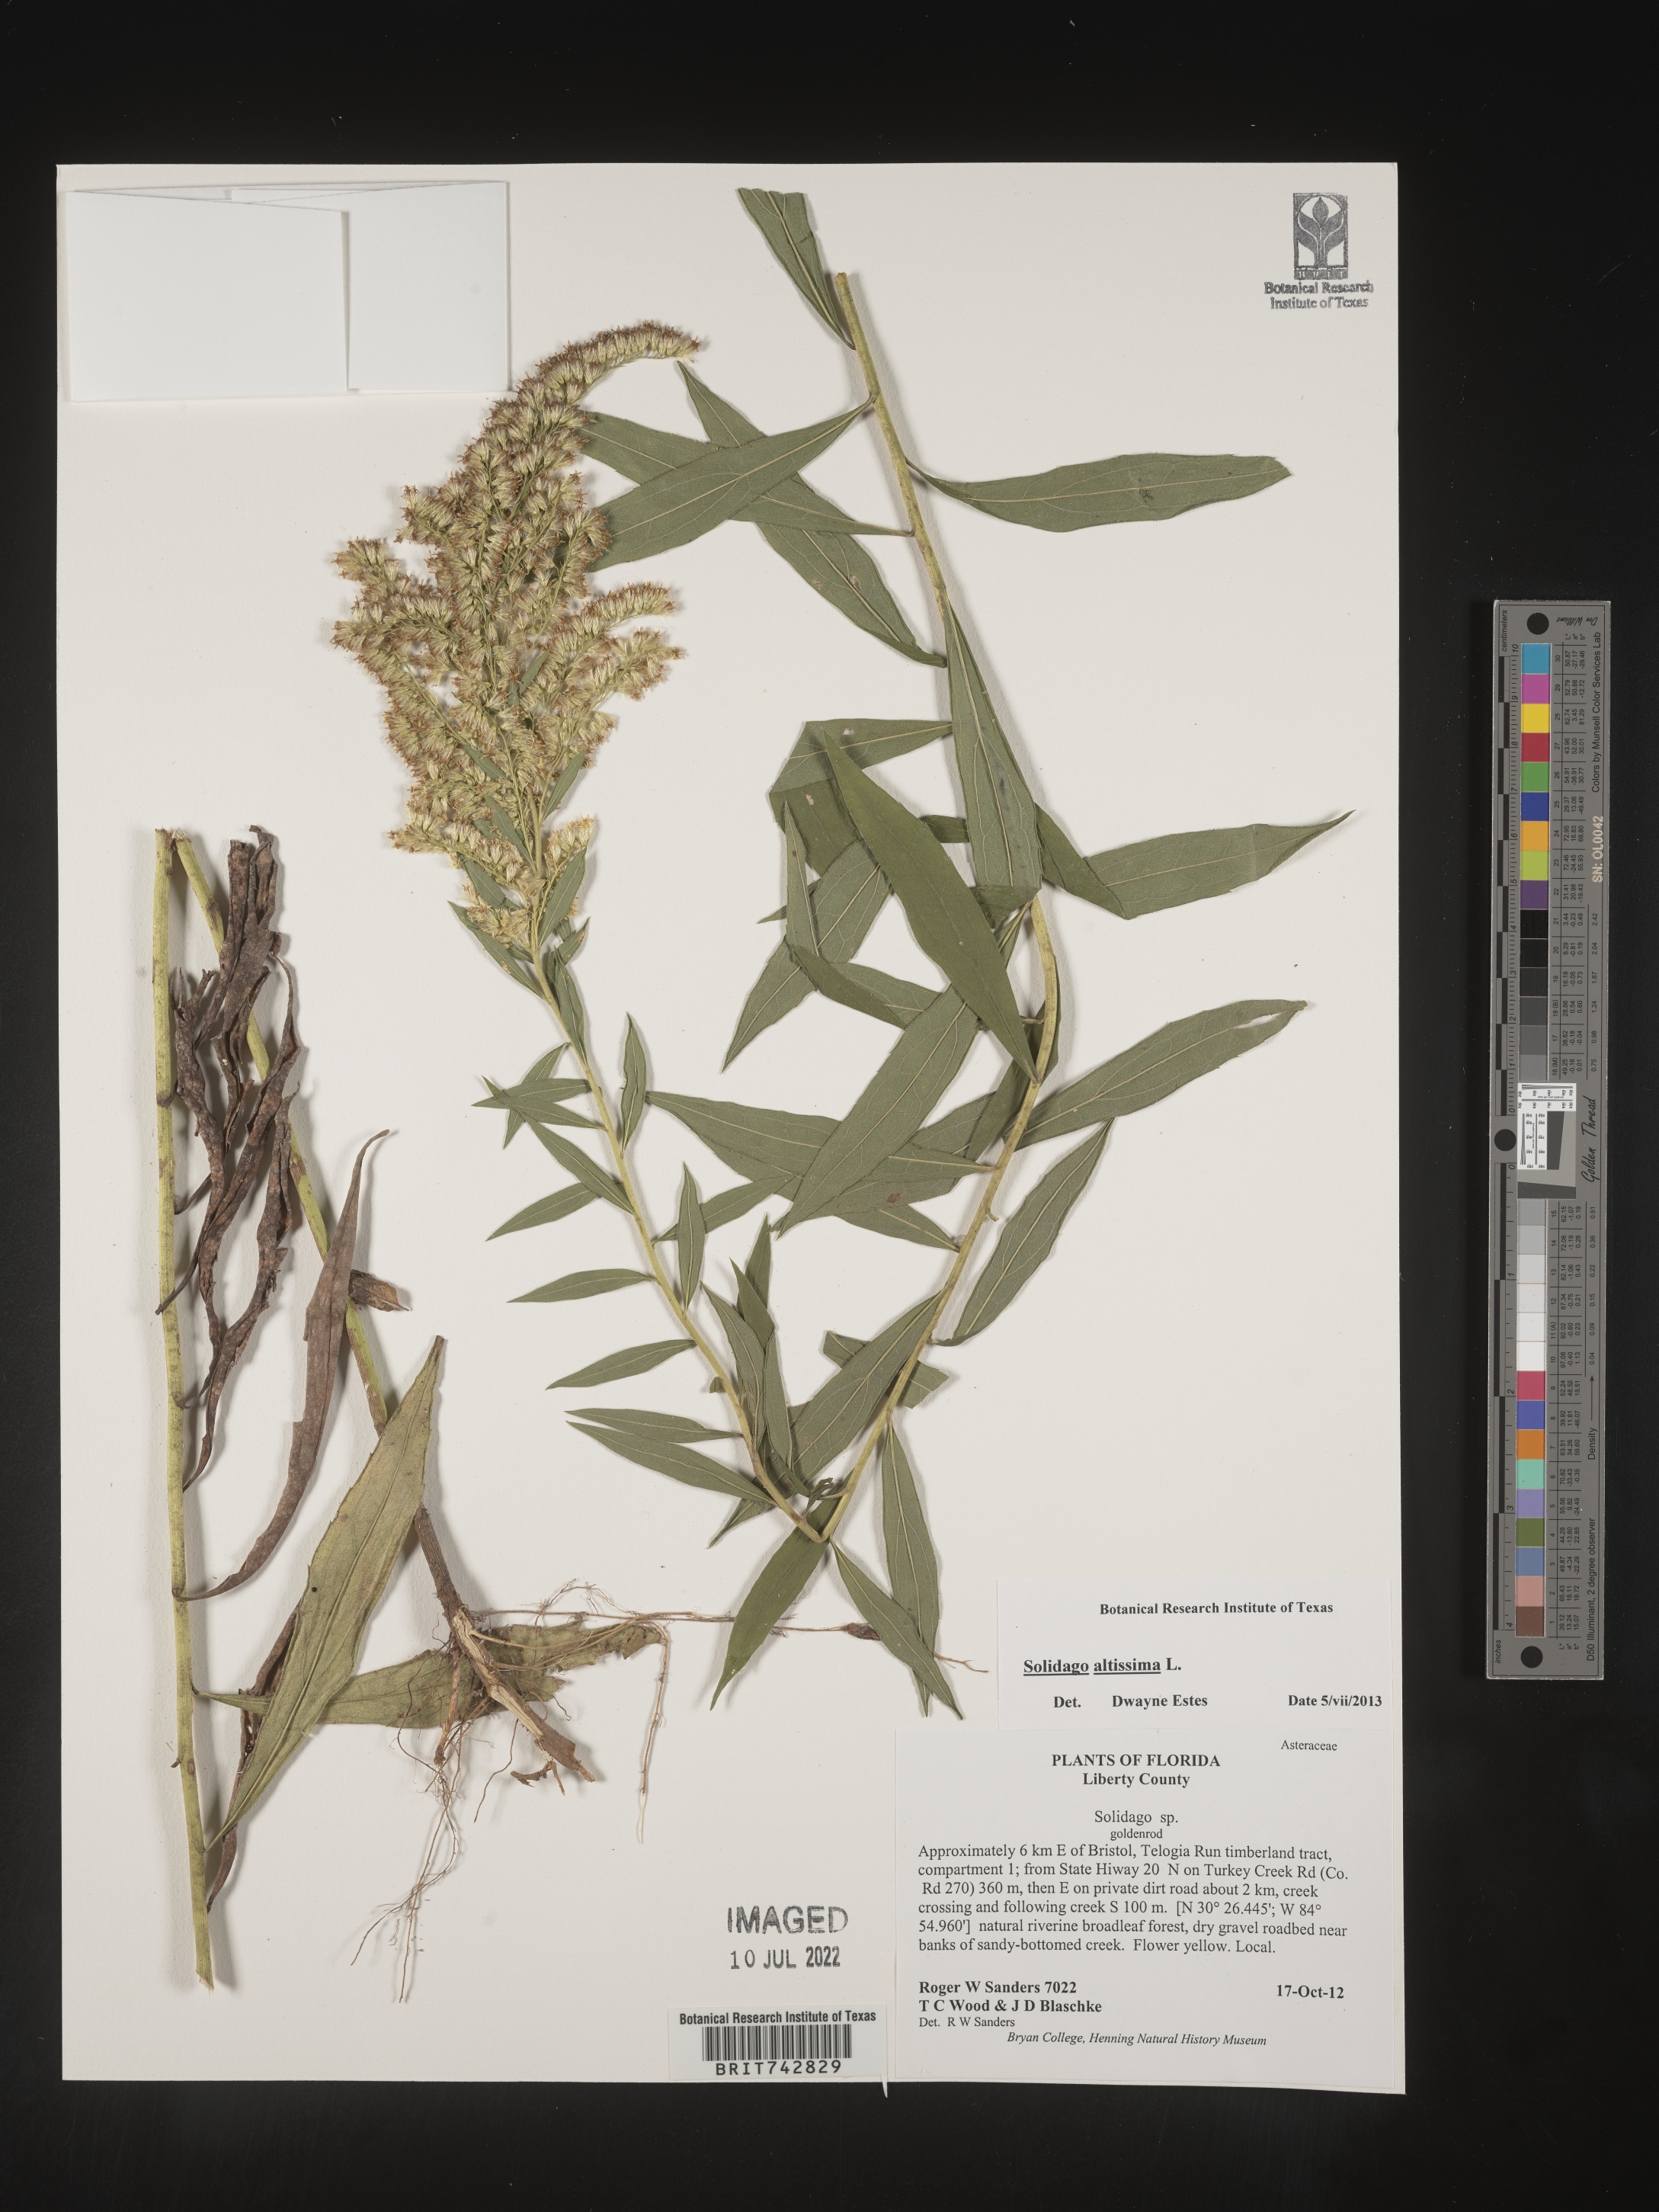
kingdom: Plantae
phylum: Tracheophyta
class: Magnoliopsida
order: Asterales
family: Asteraceae
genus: Solidago
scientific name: Solidago altissima
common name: Late goldenrod
